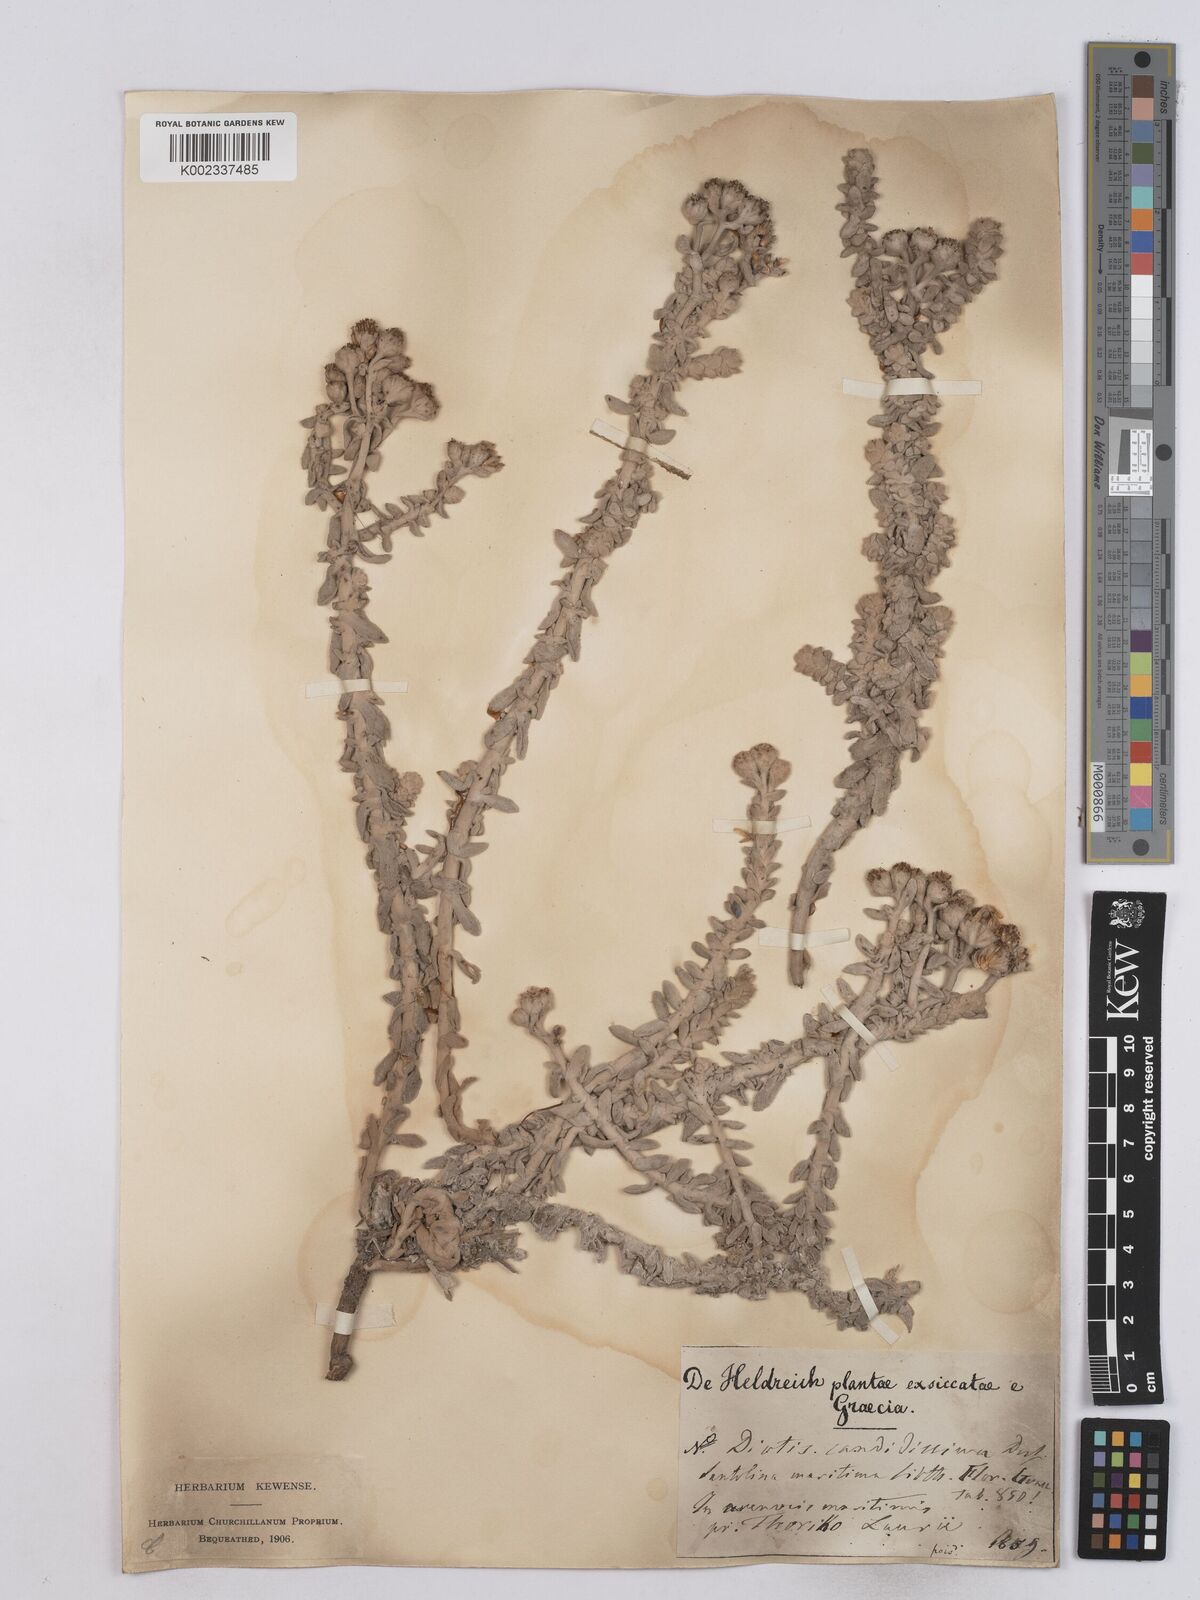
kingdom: Plantae
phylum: Tracheophyta
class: Magnoliopsida
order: Asterales
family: Asteraceae
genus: Achillea
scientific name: Achillea maritima
